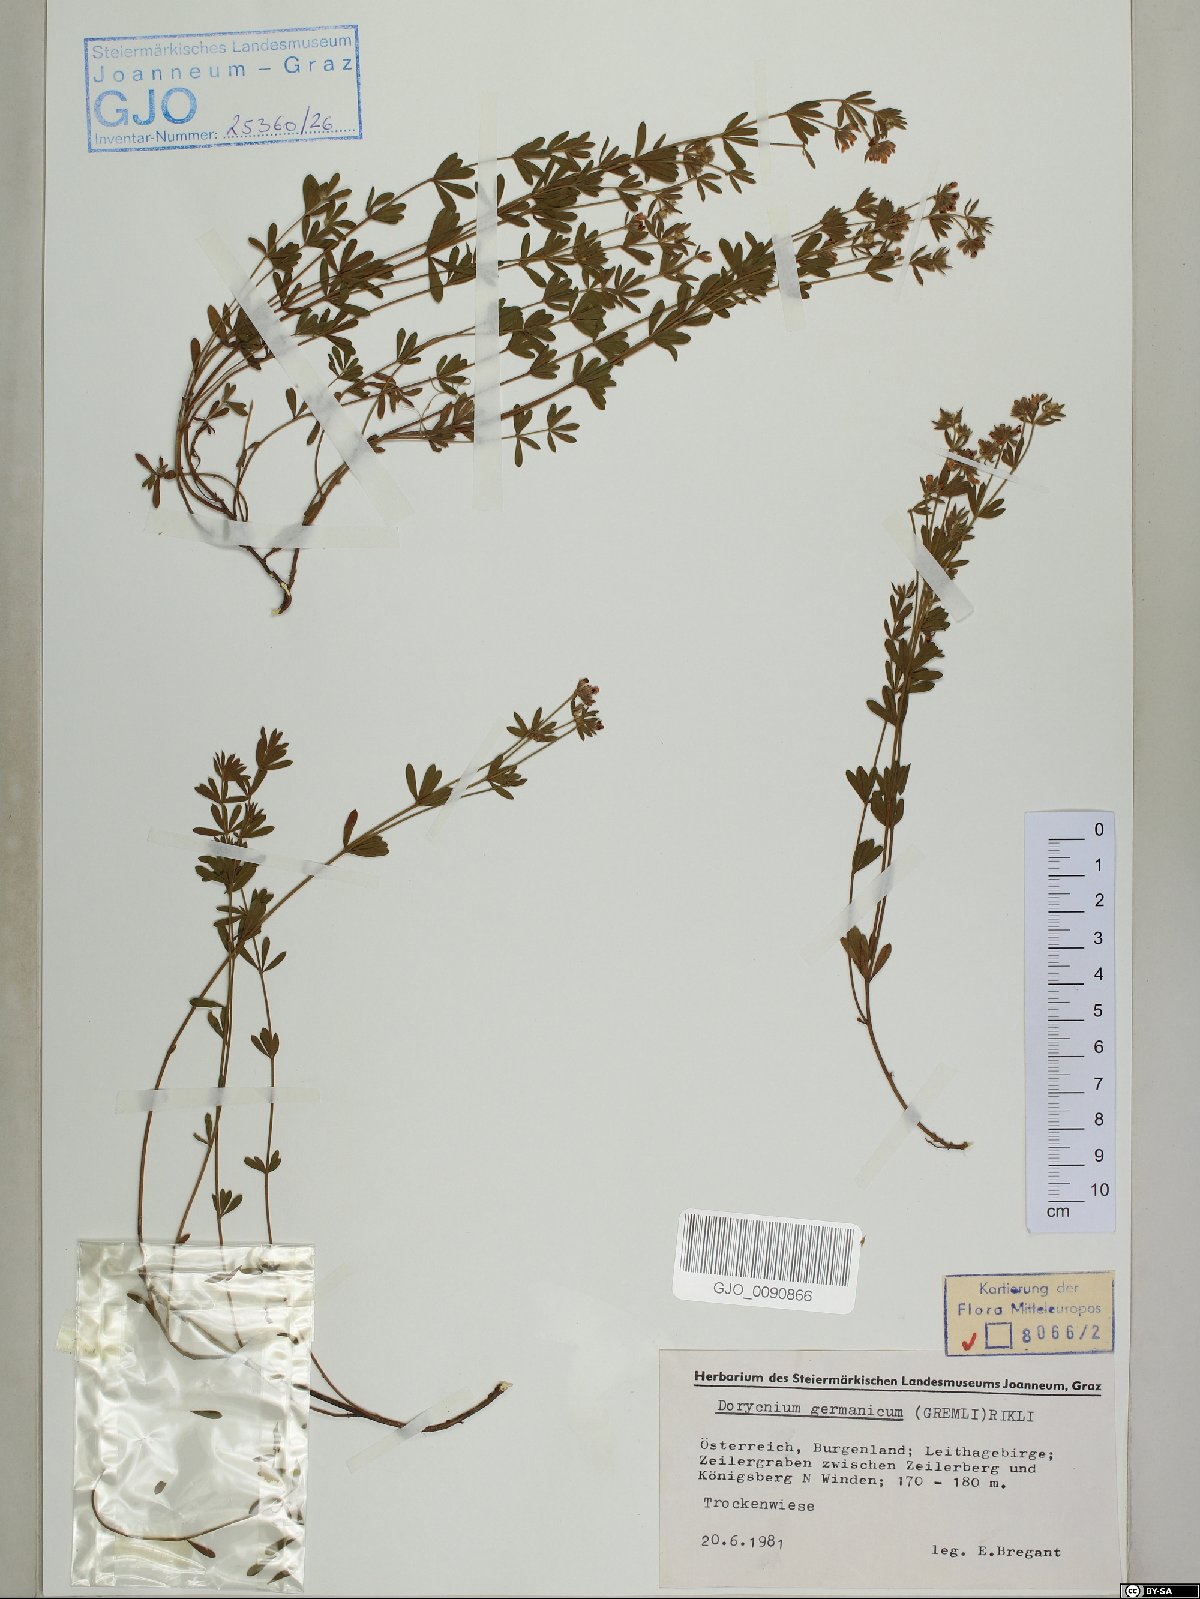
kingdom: Plantae
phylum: Tracheophyta
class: Magnoliopsida
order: Fabales
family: Fabaceae
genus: Lotus
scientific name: Lotus germanicus
